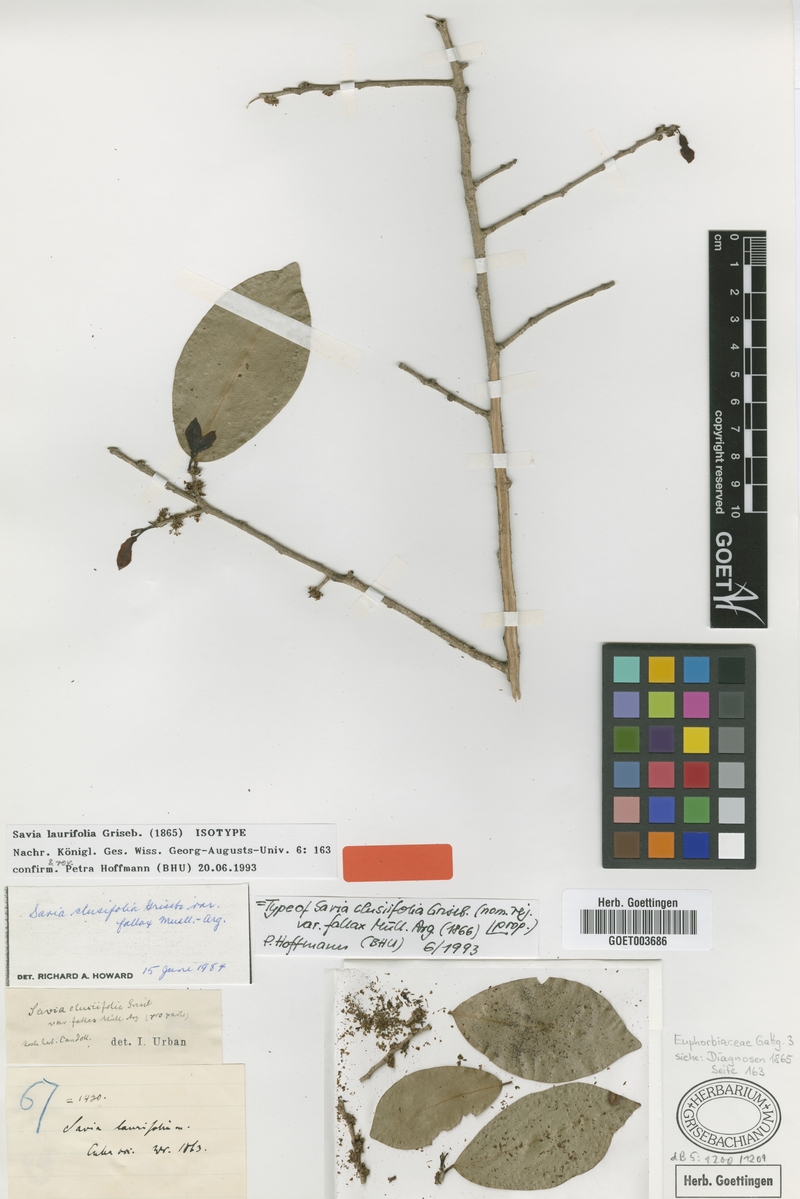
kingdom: Plantae
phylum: Tracheophyta
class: Magnoliopsida
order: Malpighiales
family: Phyllanthaceae
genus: Heterosavia
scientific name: Heterosavia laurifolia
